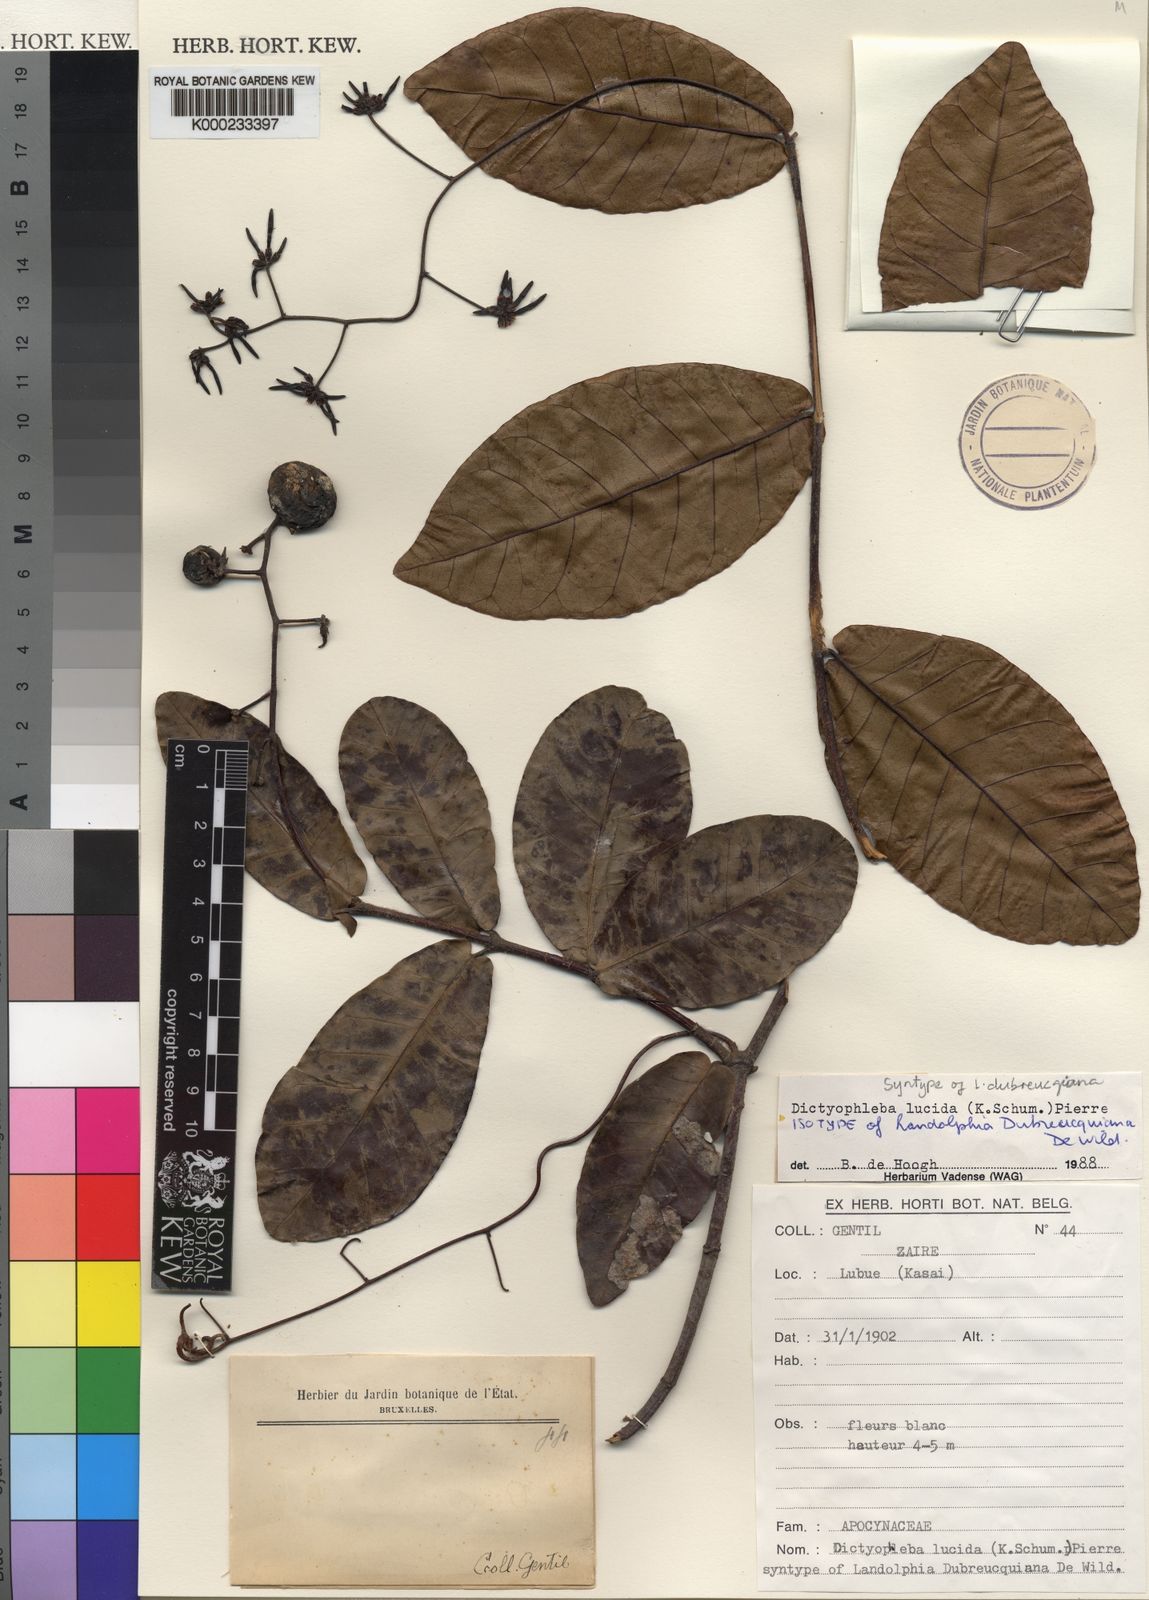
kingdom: Plantae
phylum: Tracheophyta
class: Magnoliopsida
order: Gentianales
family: Apocynaceae
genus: Dictyophleba
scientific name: Dictyophleba lucida
